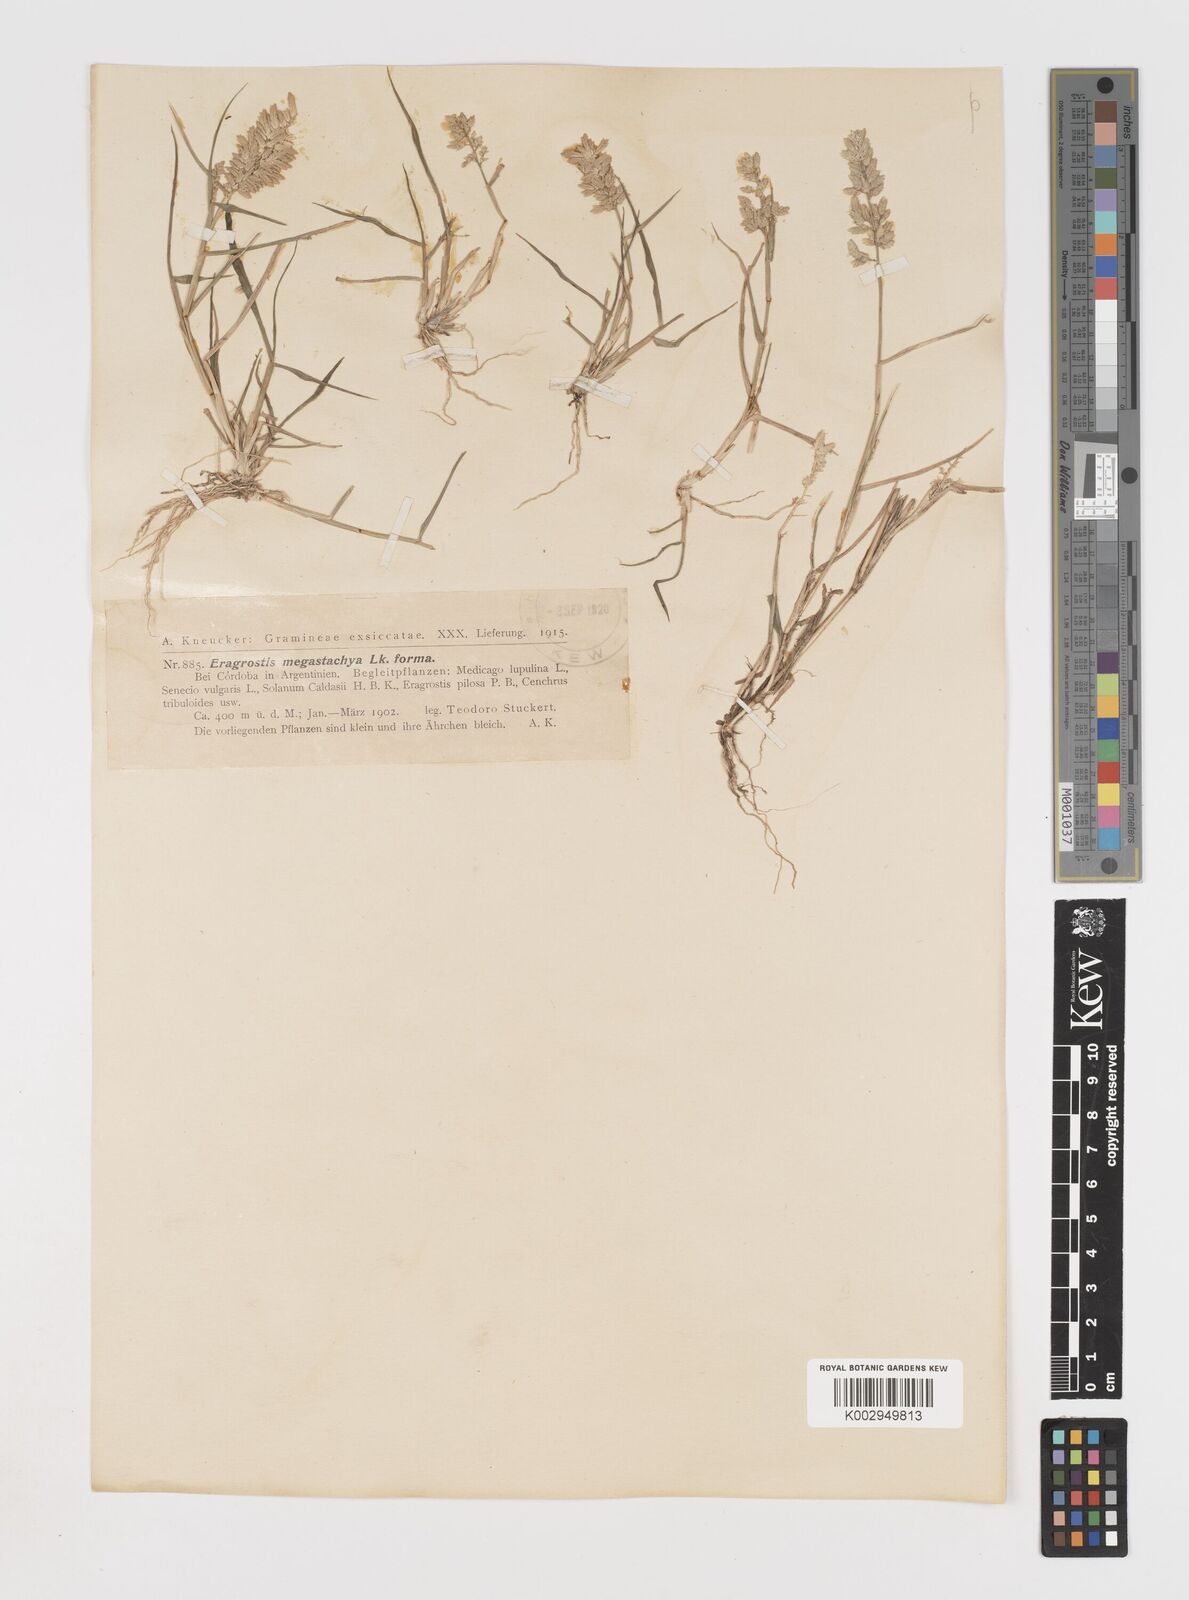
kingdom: Plantae
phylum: Tracheophyta
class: Liliopsida
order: Poales
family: Poaceae
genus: Eragrostis
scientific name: Eragrostis cilianensis
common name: Stinkgrass
